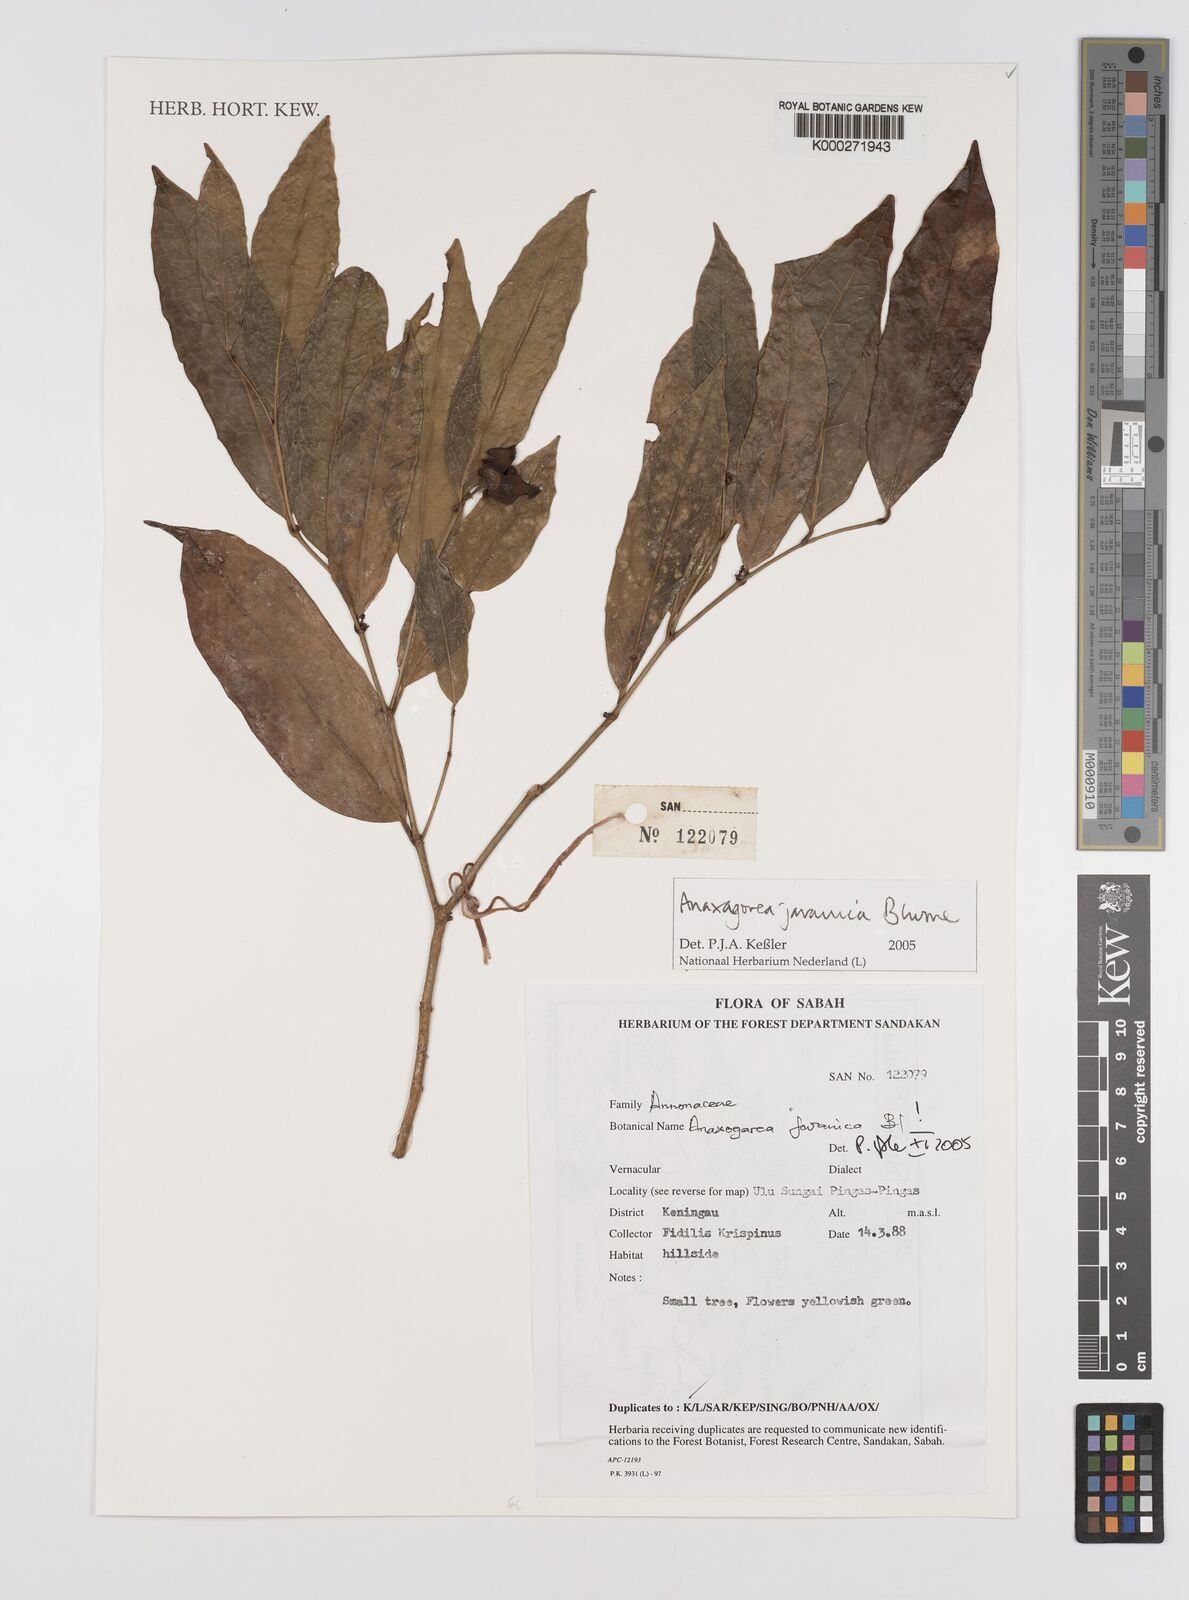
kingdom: Plantae
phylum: Tracheophyta
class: Magnoliopsida
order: Magnoliales
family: Annonaceae
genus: Anaxagorea
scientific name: Anaxagorea javanica
